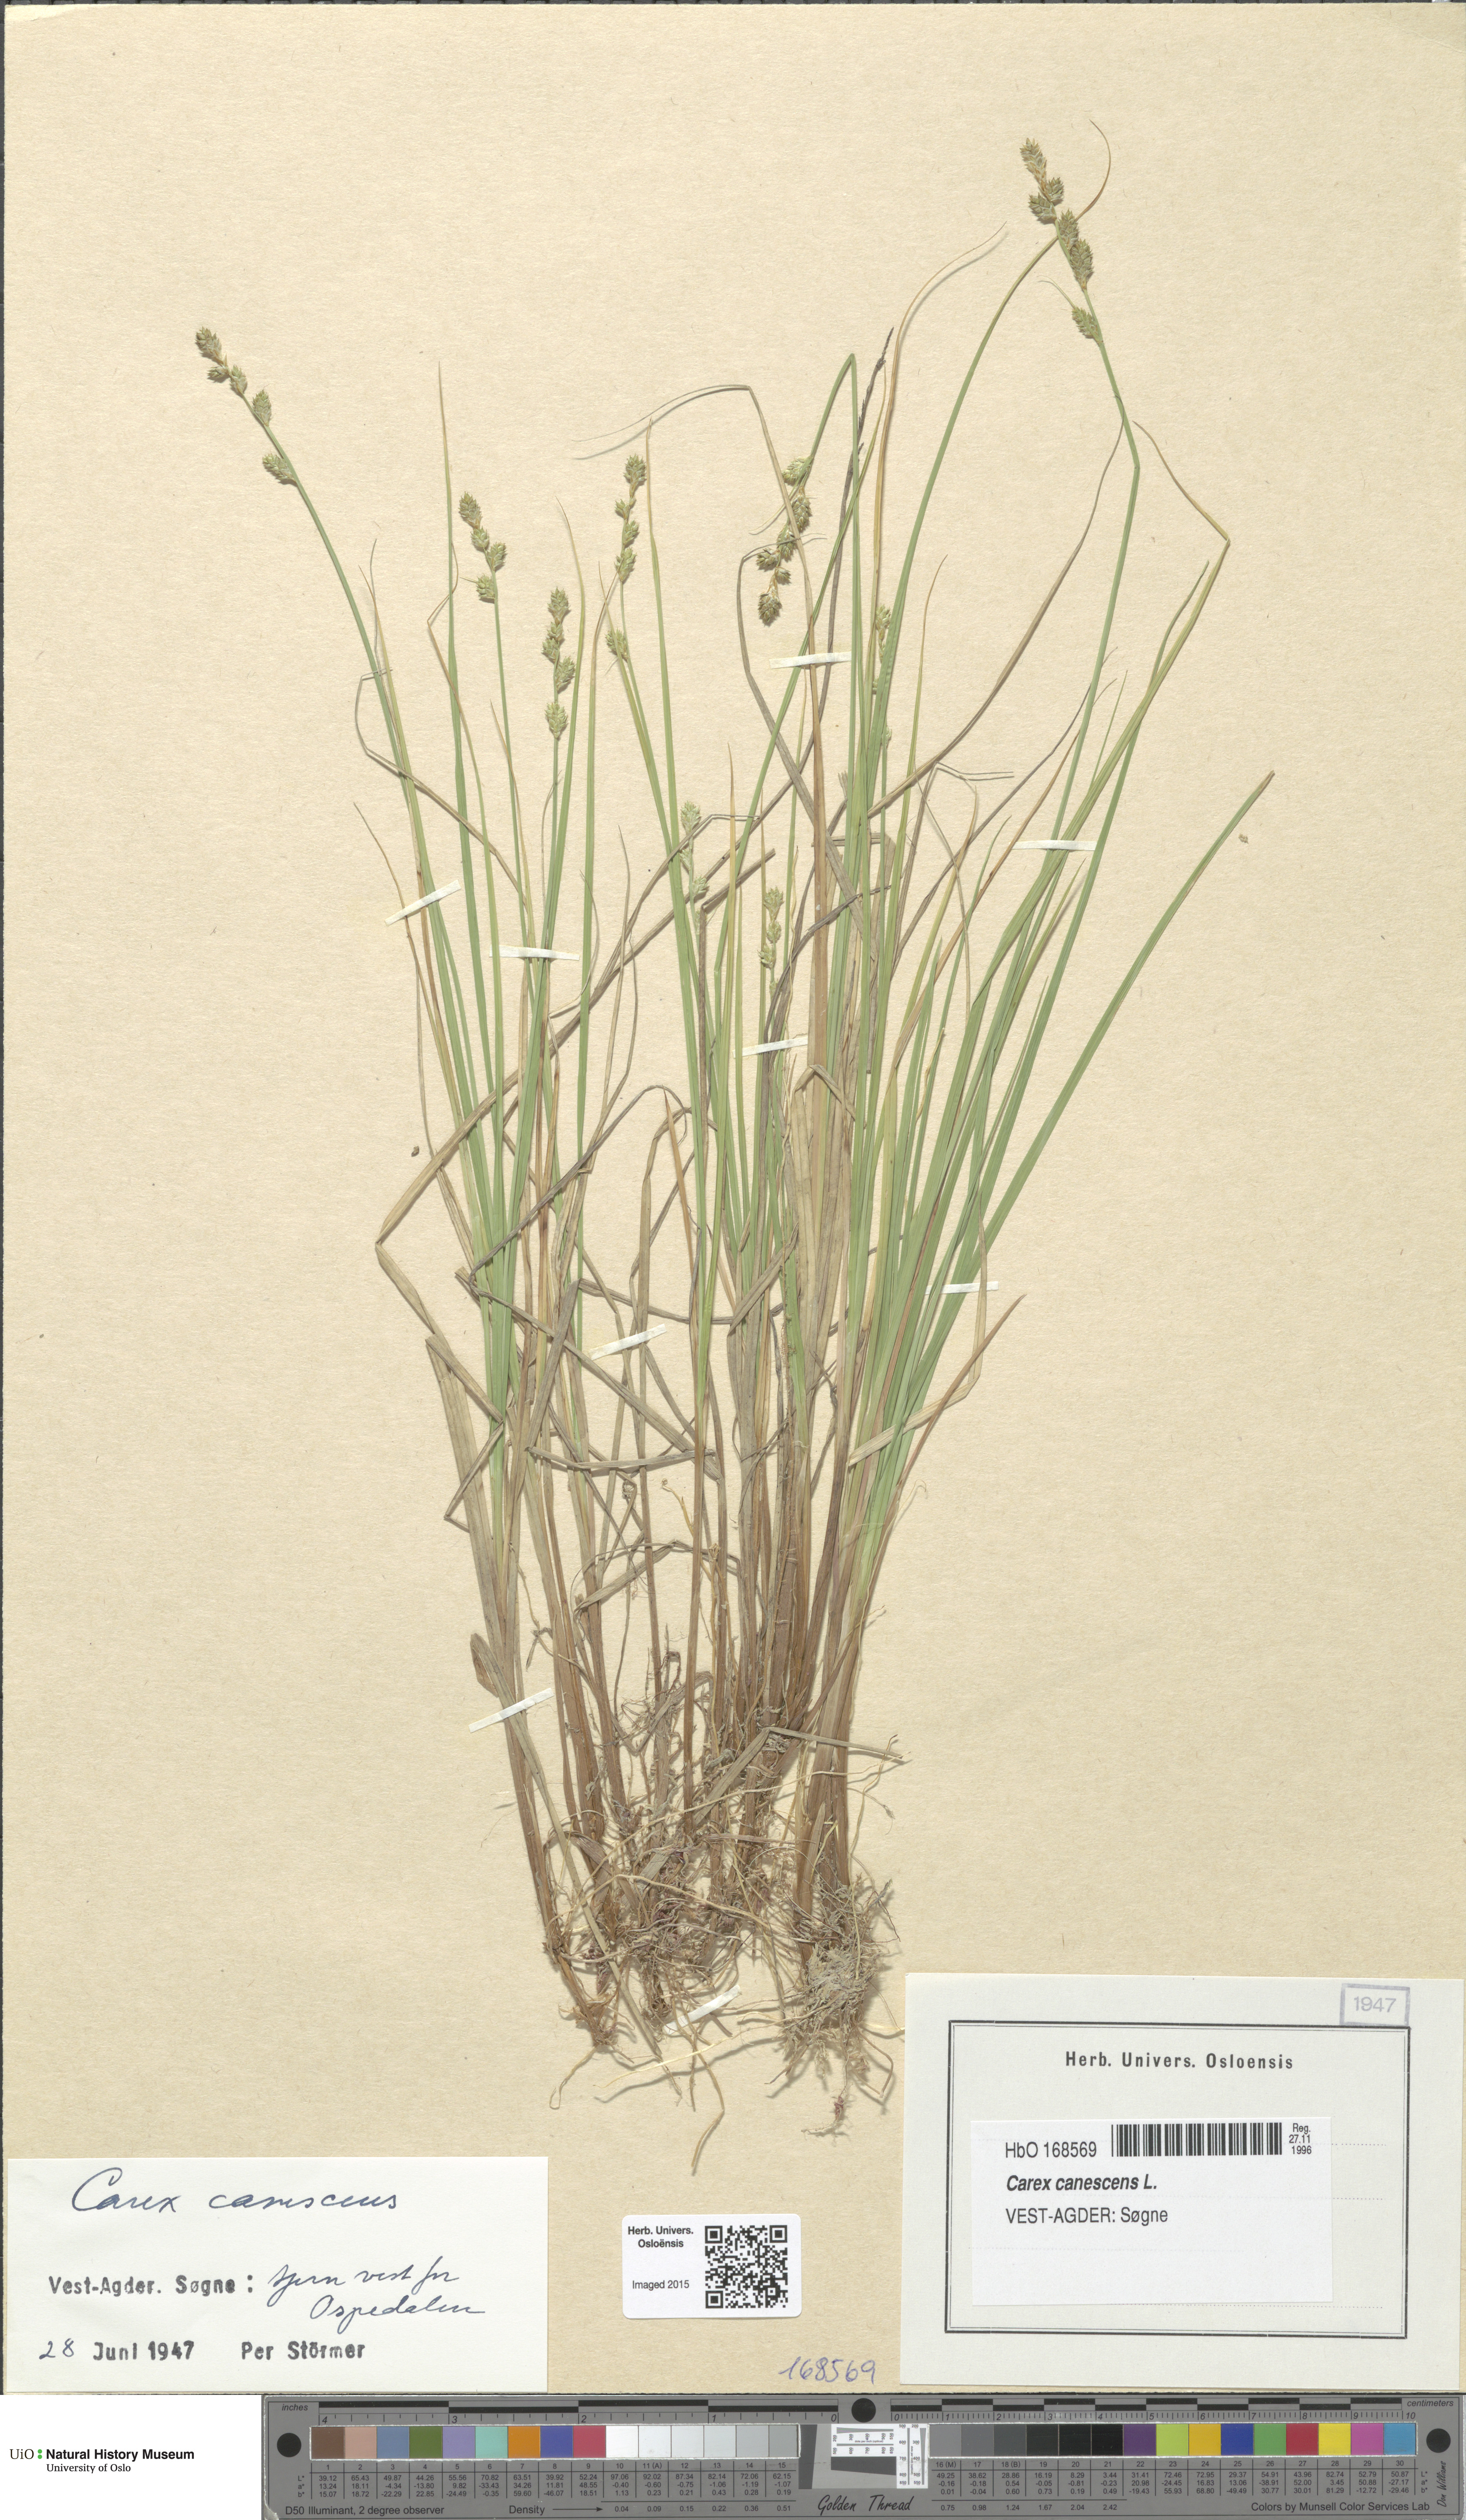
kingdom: Plantae
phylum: Tracheophyta
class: Liliopsida
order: Poales
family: Cyperaceae
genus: Carex
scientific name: Carex canescens
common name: White sedge
